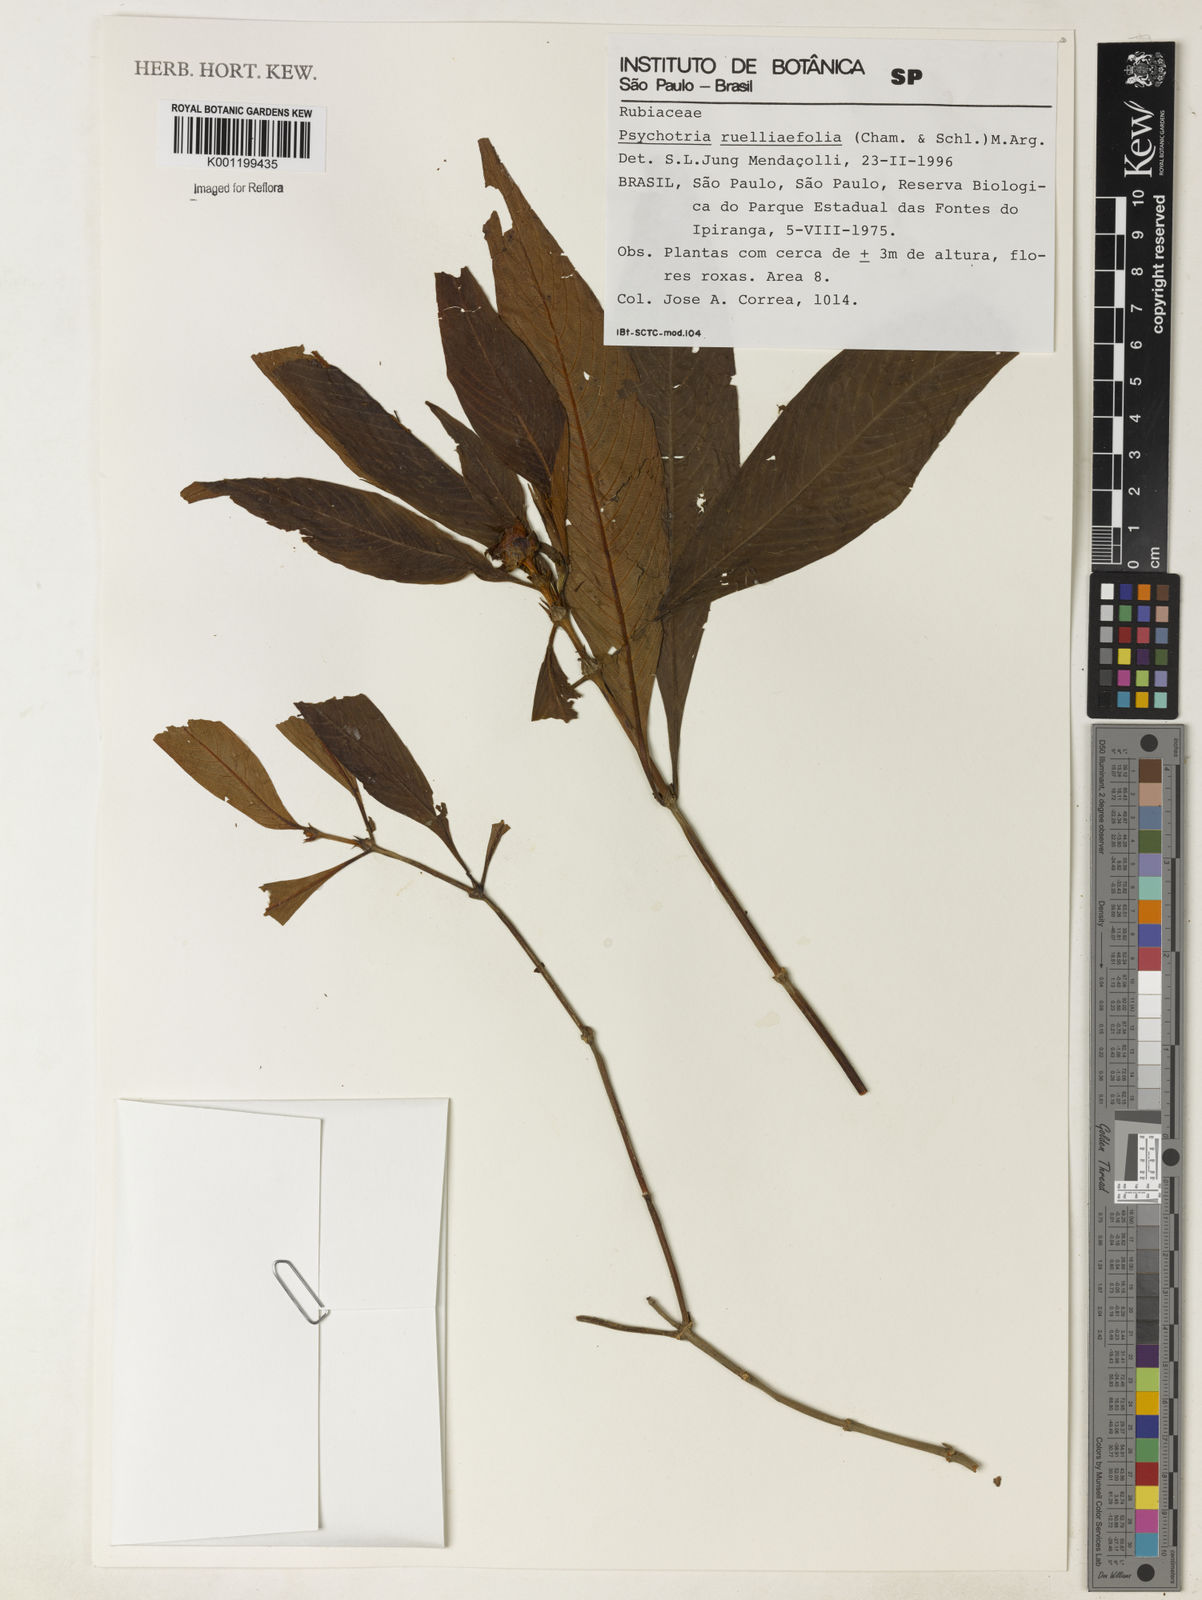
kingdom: Plantae
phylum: Tracheophyta
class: Magnoliopsida
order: Gentianales
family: Rubiaceae
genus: Psychotria
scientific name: Psychotria
